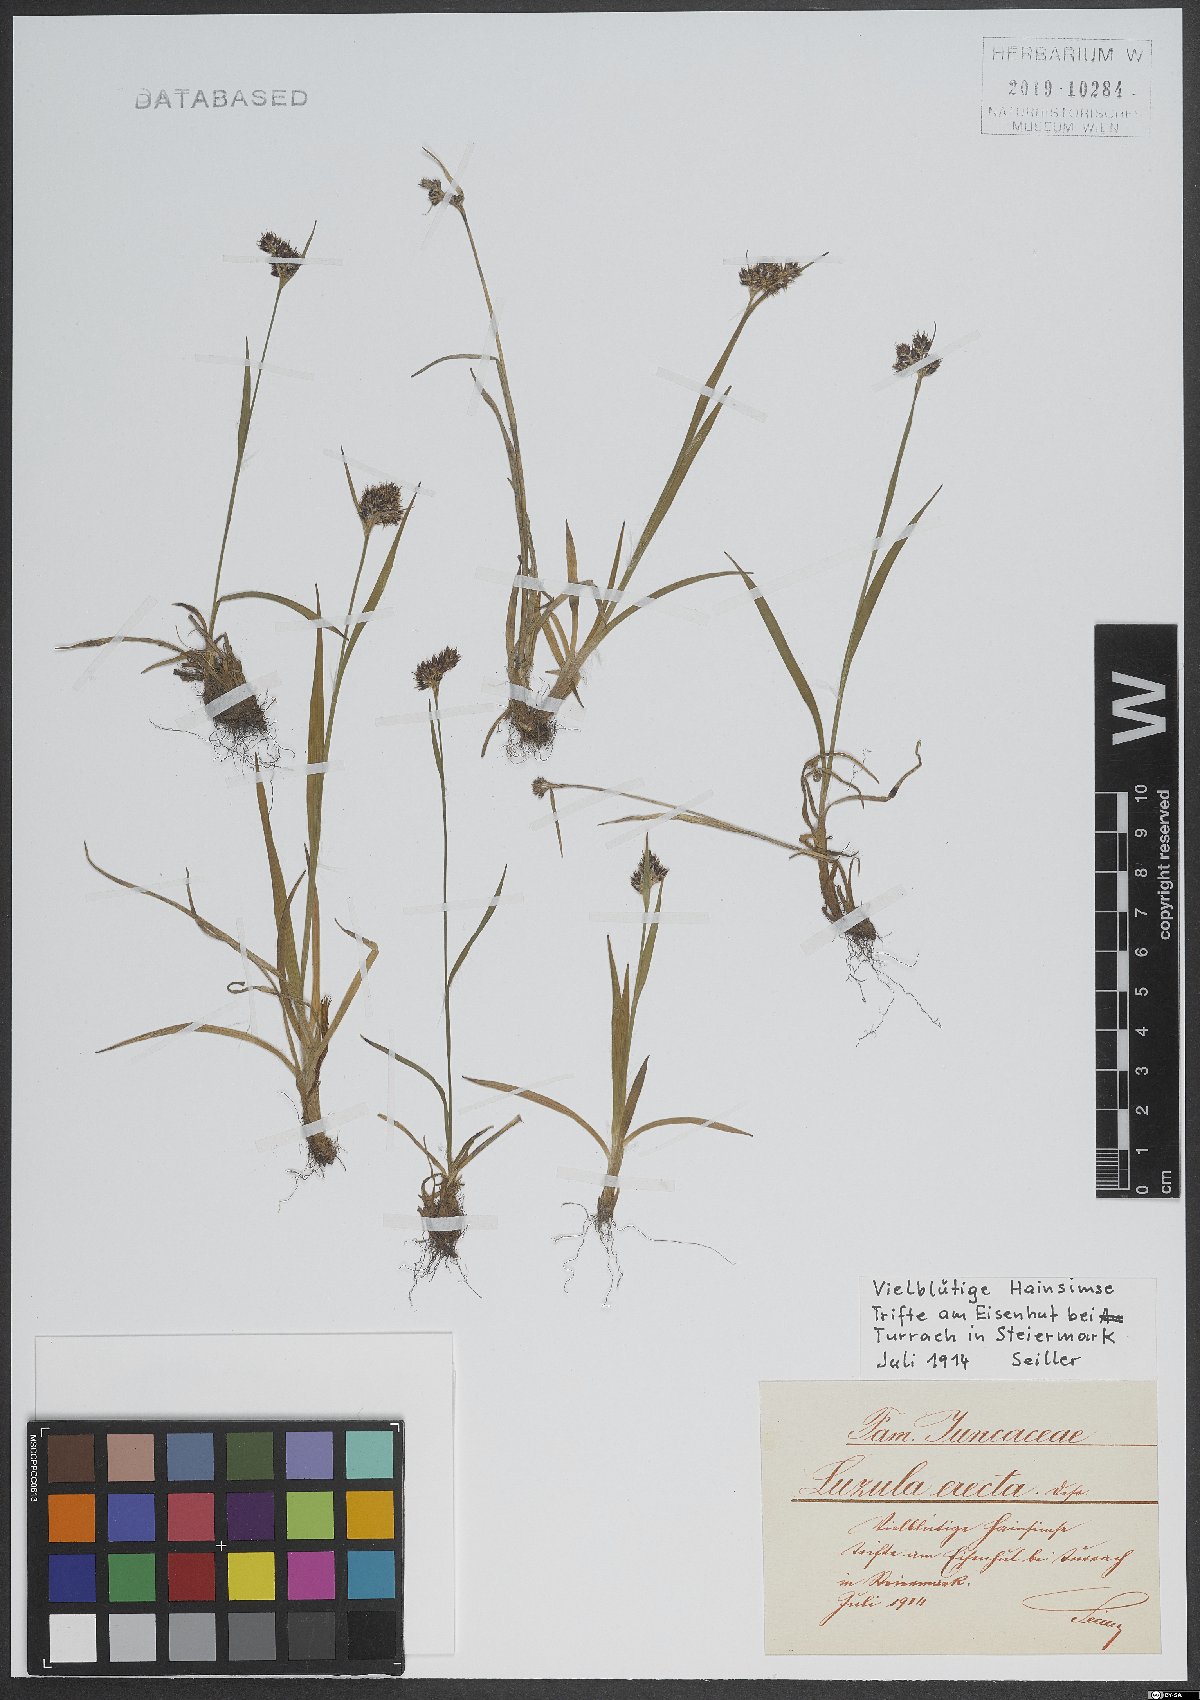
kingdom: Plantae
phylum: Tracheophyta
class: Liliopsida
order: Poales
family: Juncaceae
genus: Luzula
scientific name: Luzula multiflora
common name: Heath wood-rush
